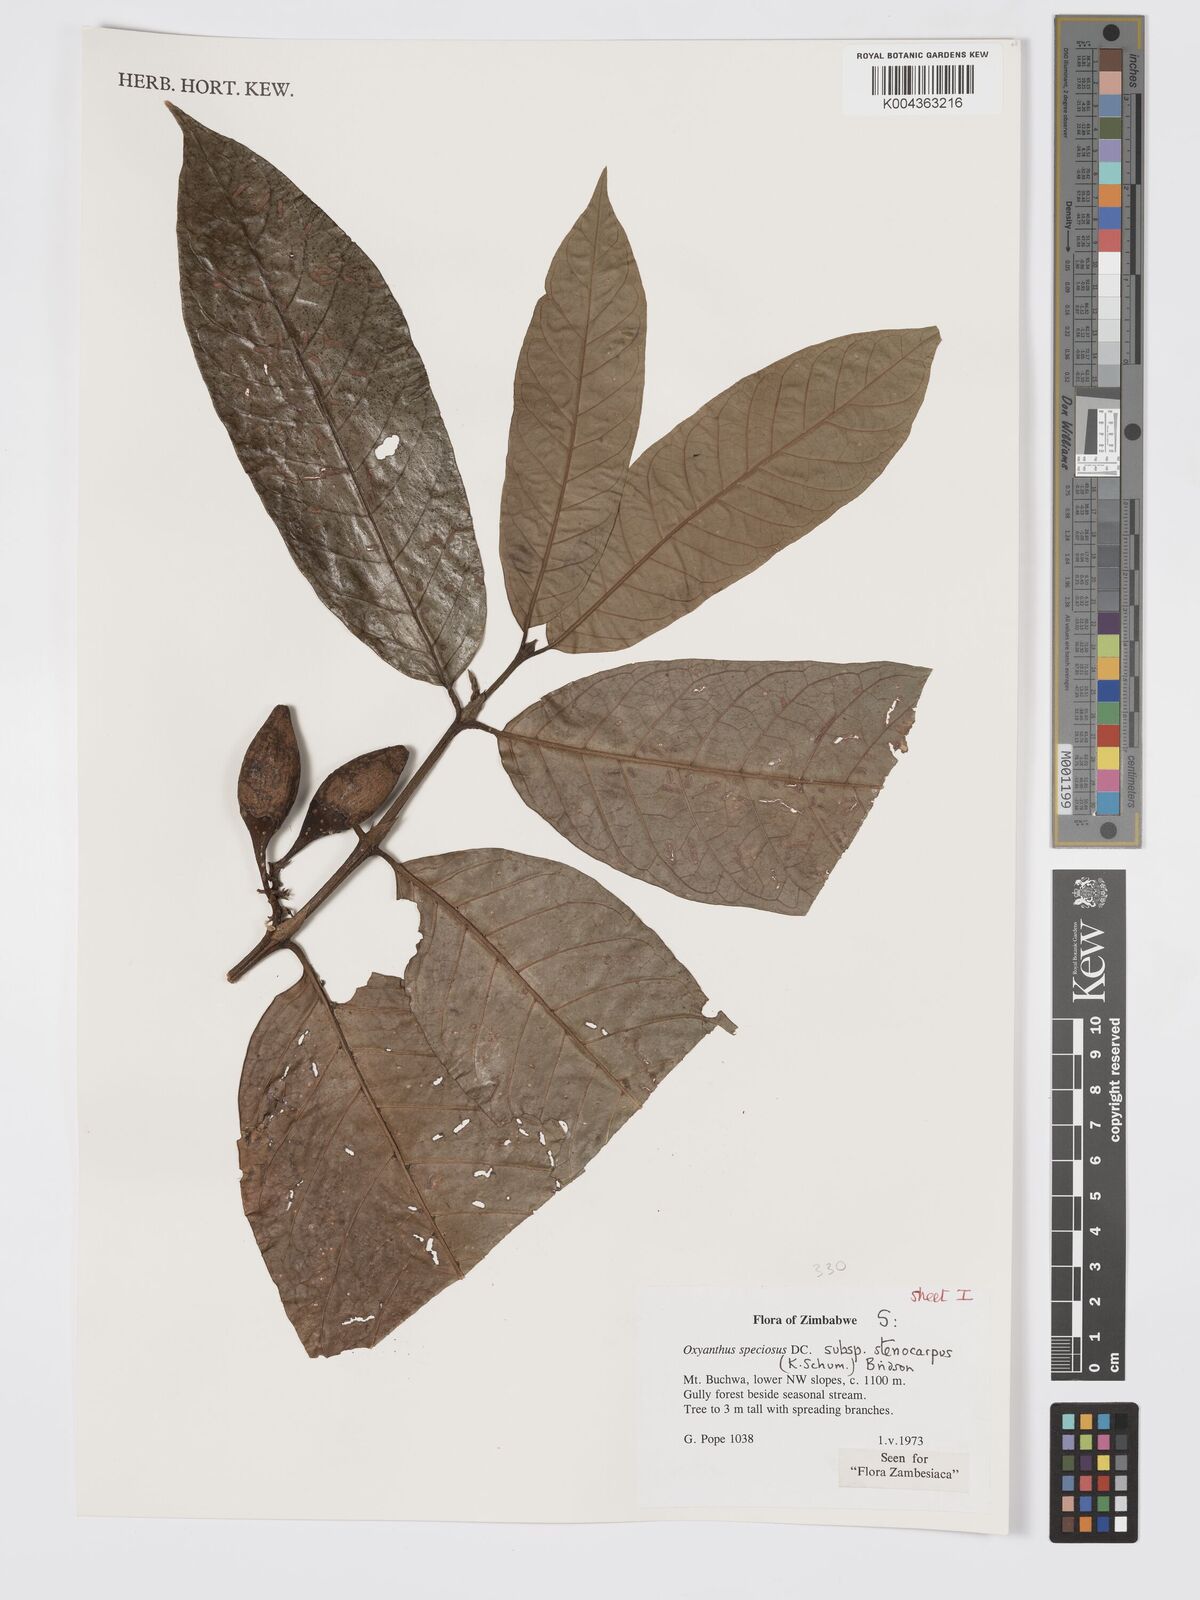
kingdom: Plantae
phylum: Tracheophyta
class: Magnoliopsida
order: Gentianales
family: Rubiaceae
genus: Oxyanthus
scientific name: Oxyanthus speciosus
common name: Whipstick loquat
